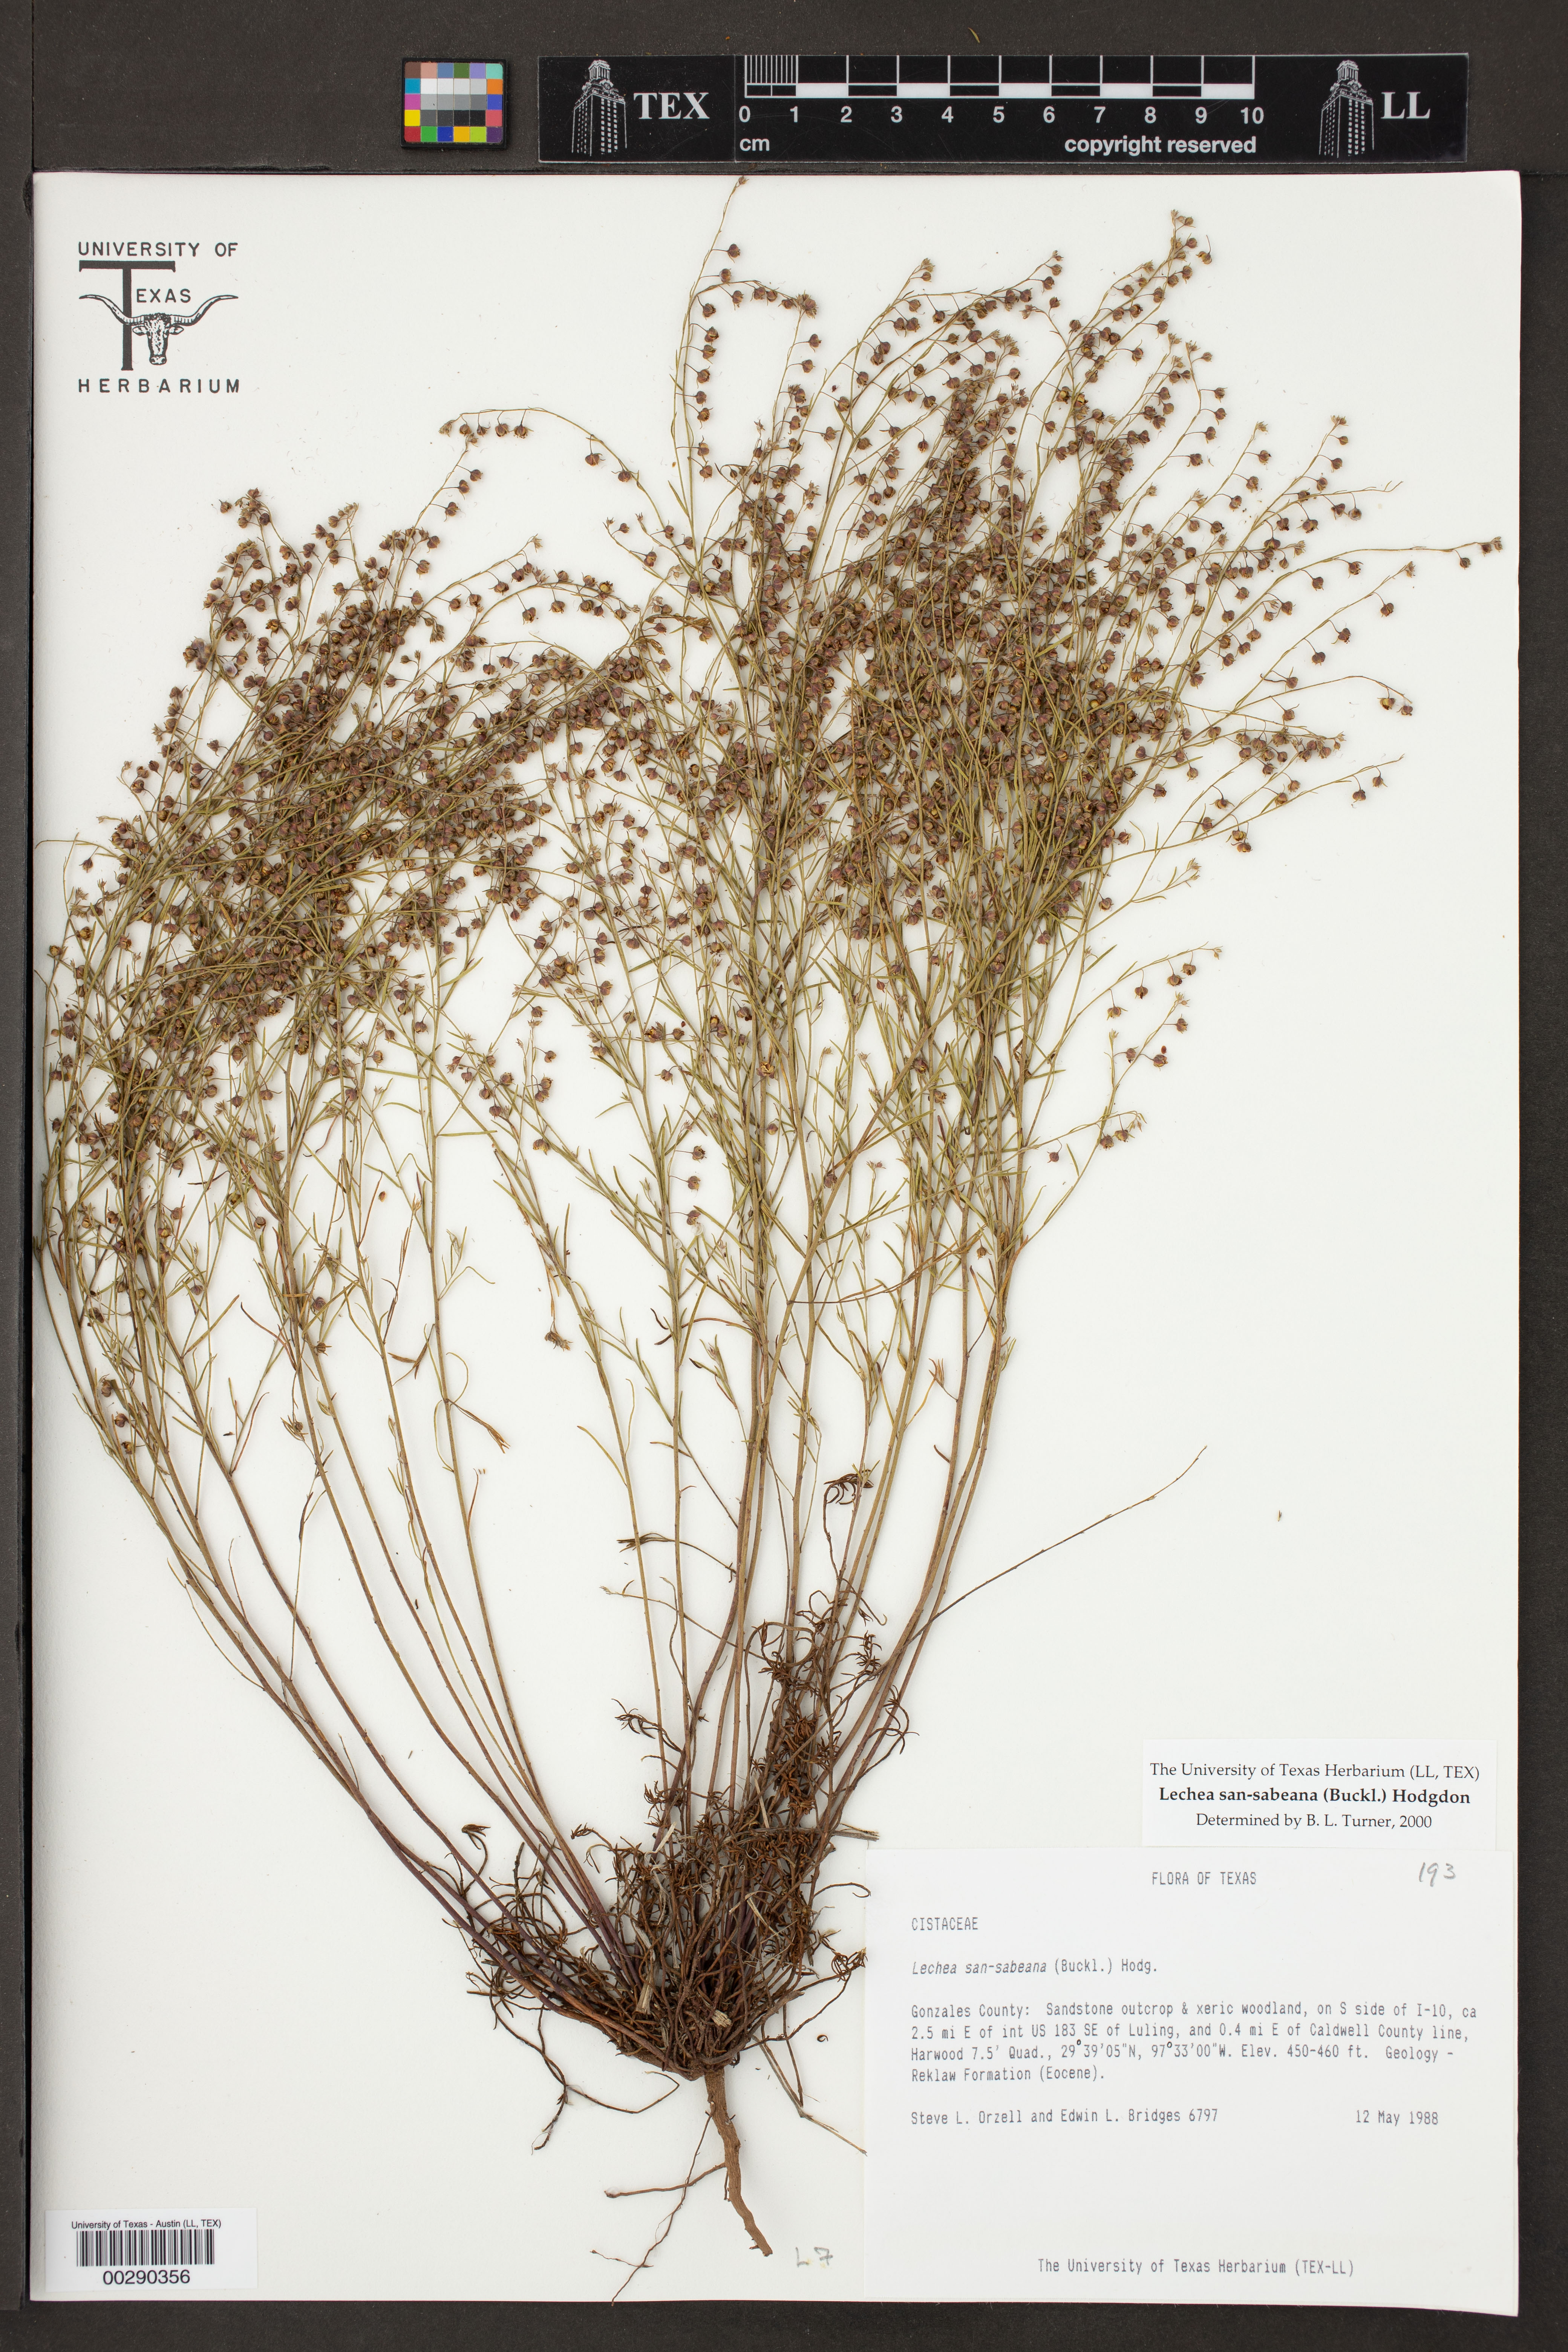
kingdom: Plantae
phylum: Tracheophyta
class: Magnoliopsida
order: Malvales
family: Cistaceae
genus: Lechea
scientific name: Lechea san-sabeana
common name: San saba pinweed
